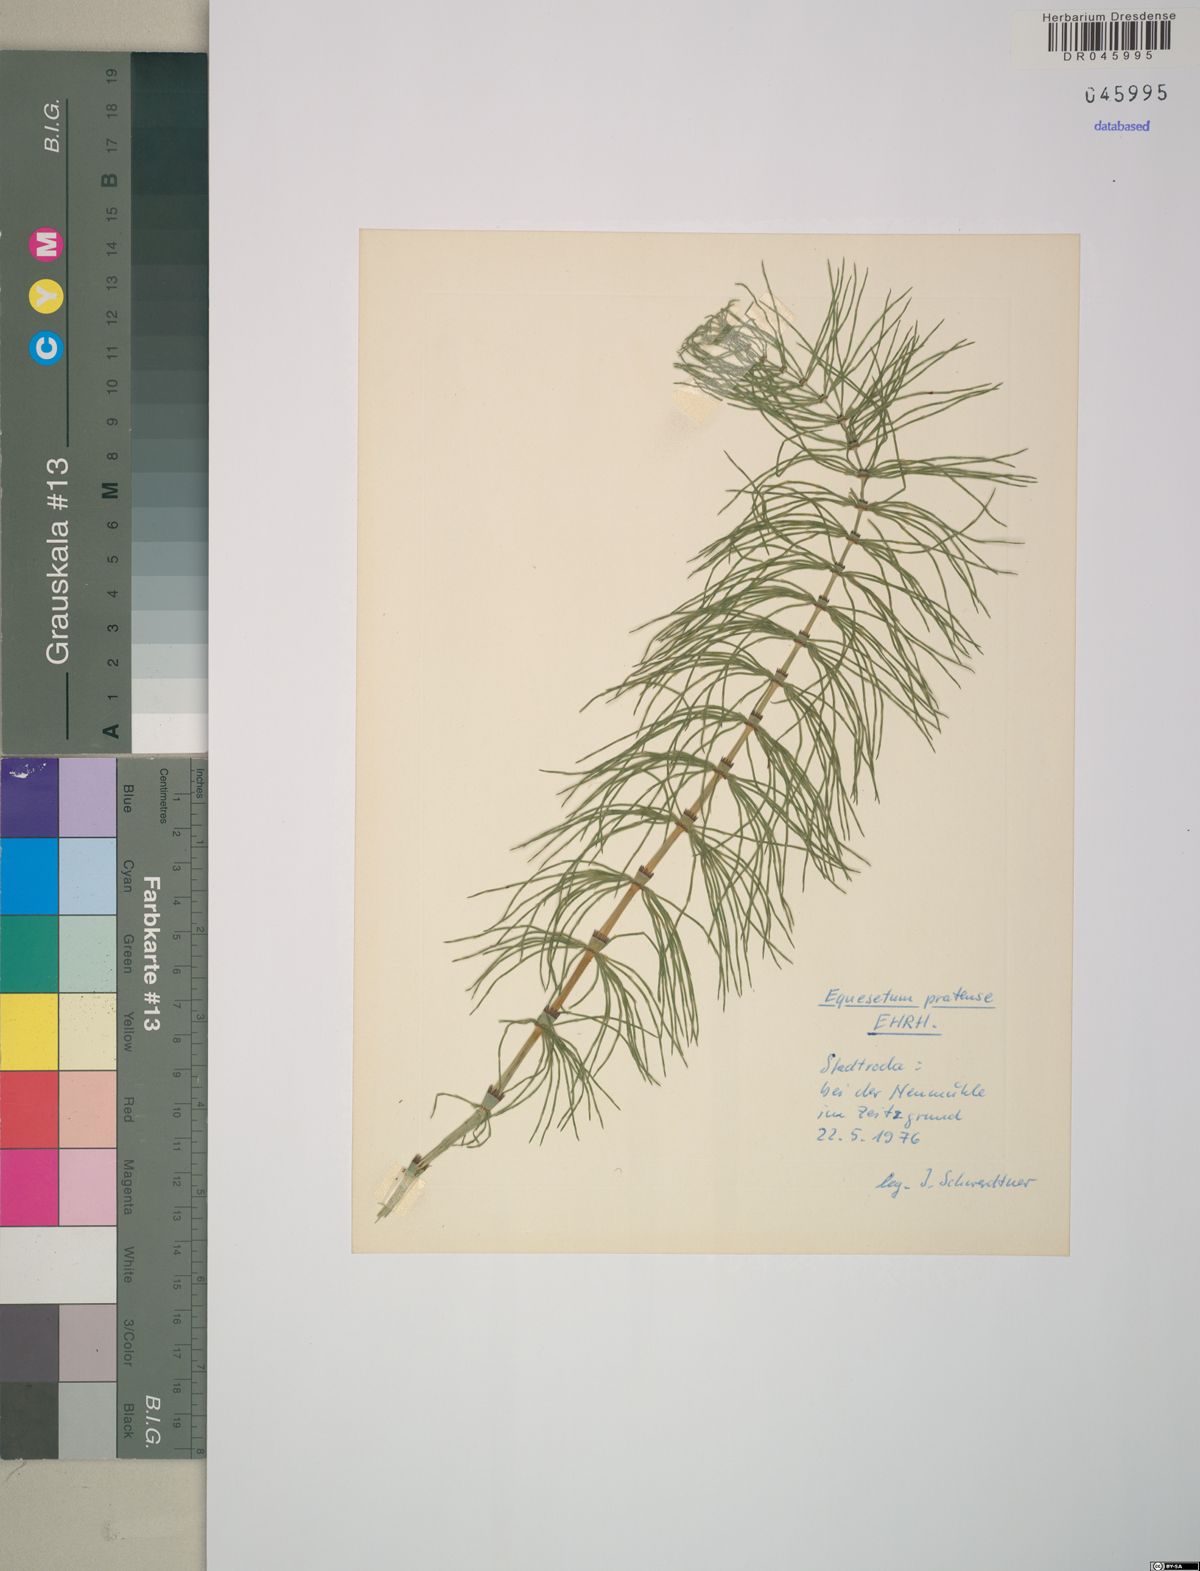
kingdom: Plantae
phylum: Tracheophyta
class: Polypodiopsida
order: Equisetales
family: Equisetaceae
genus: Equisetum
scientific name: Equisetum pratense
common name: Meadow horsetail
